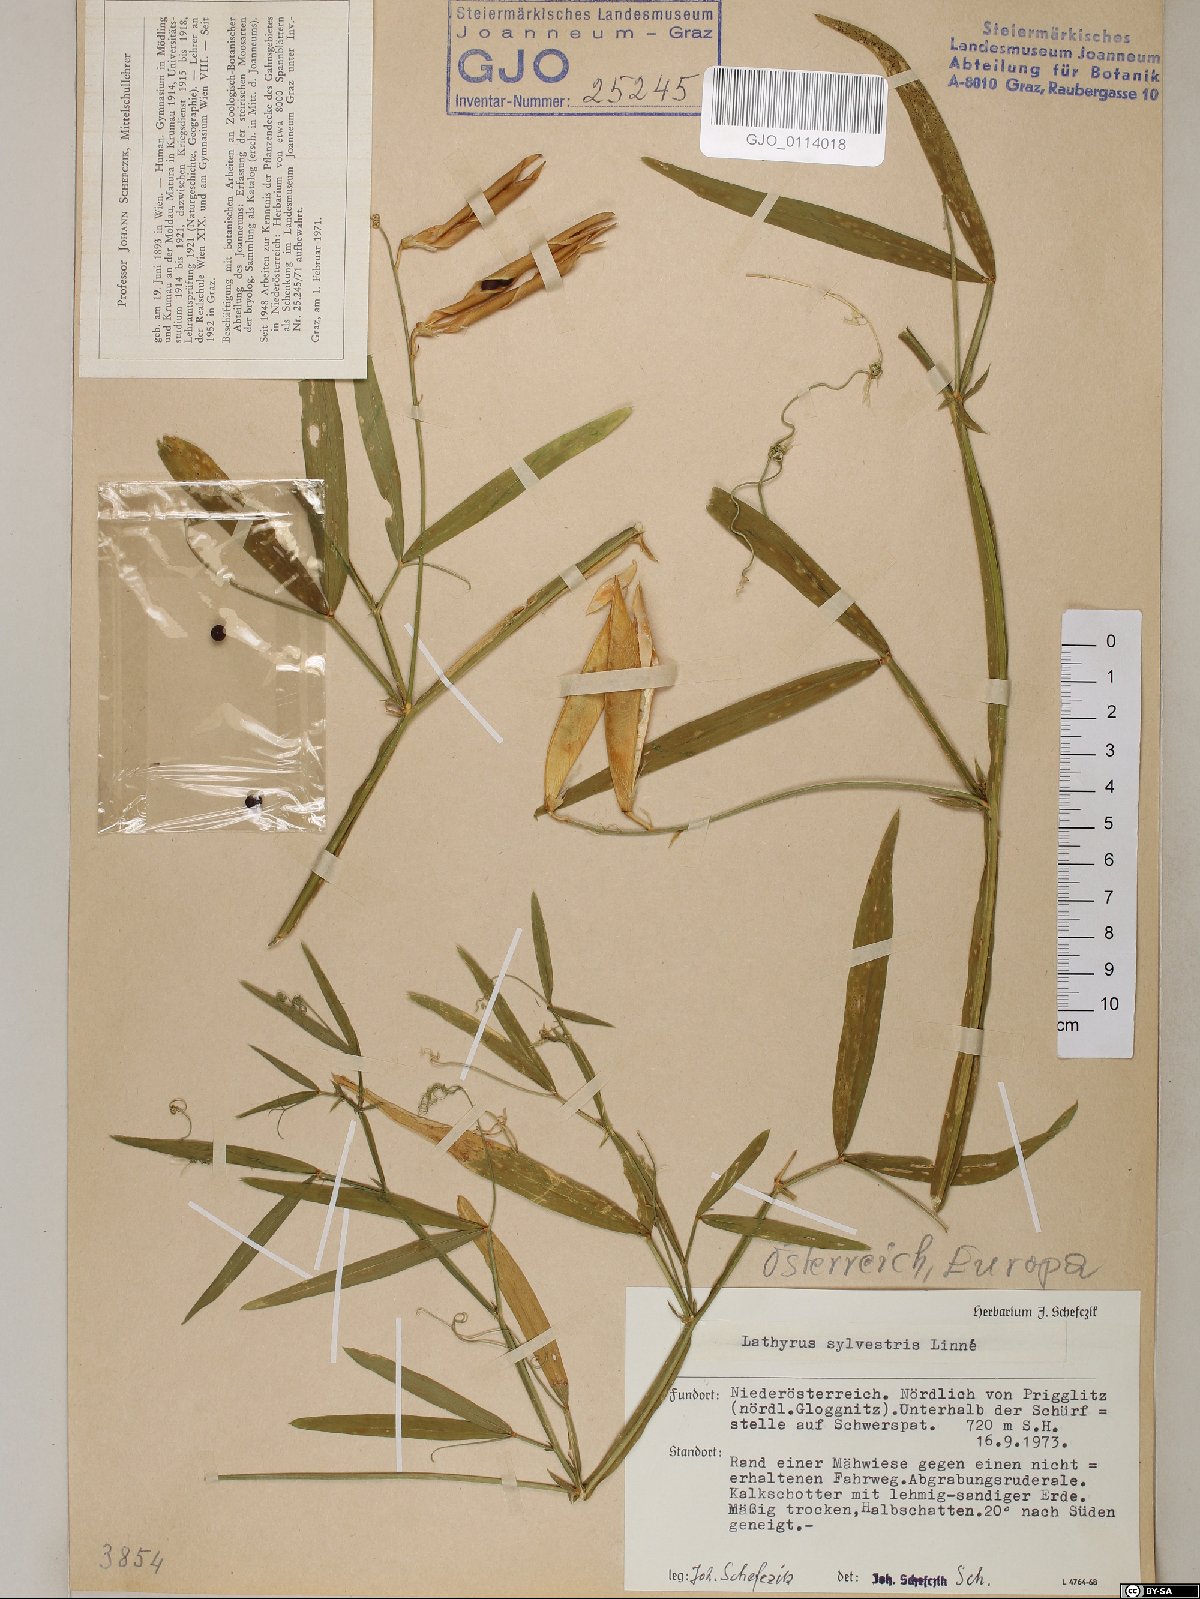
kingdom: Plantae
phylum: Tracheophyta
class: Magnoliopsida
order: Fabales
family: Fabaceae
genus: Lathyrus
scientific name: Lathyrus sylvestris
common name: Flat pea
